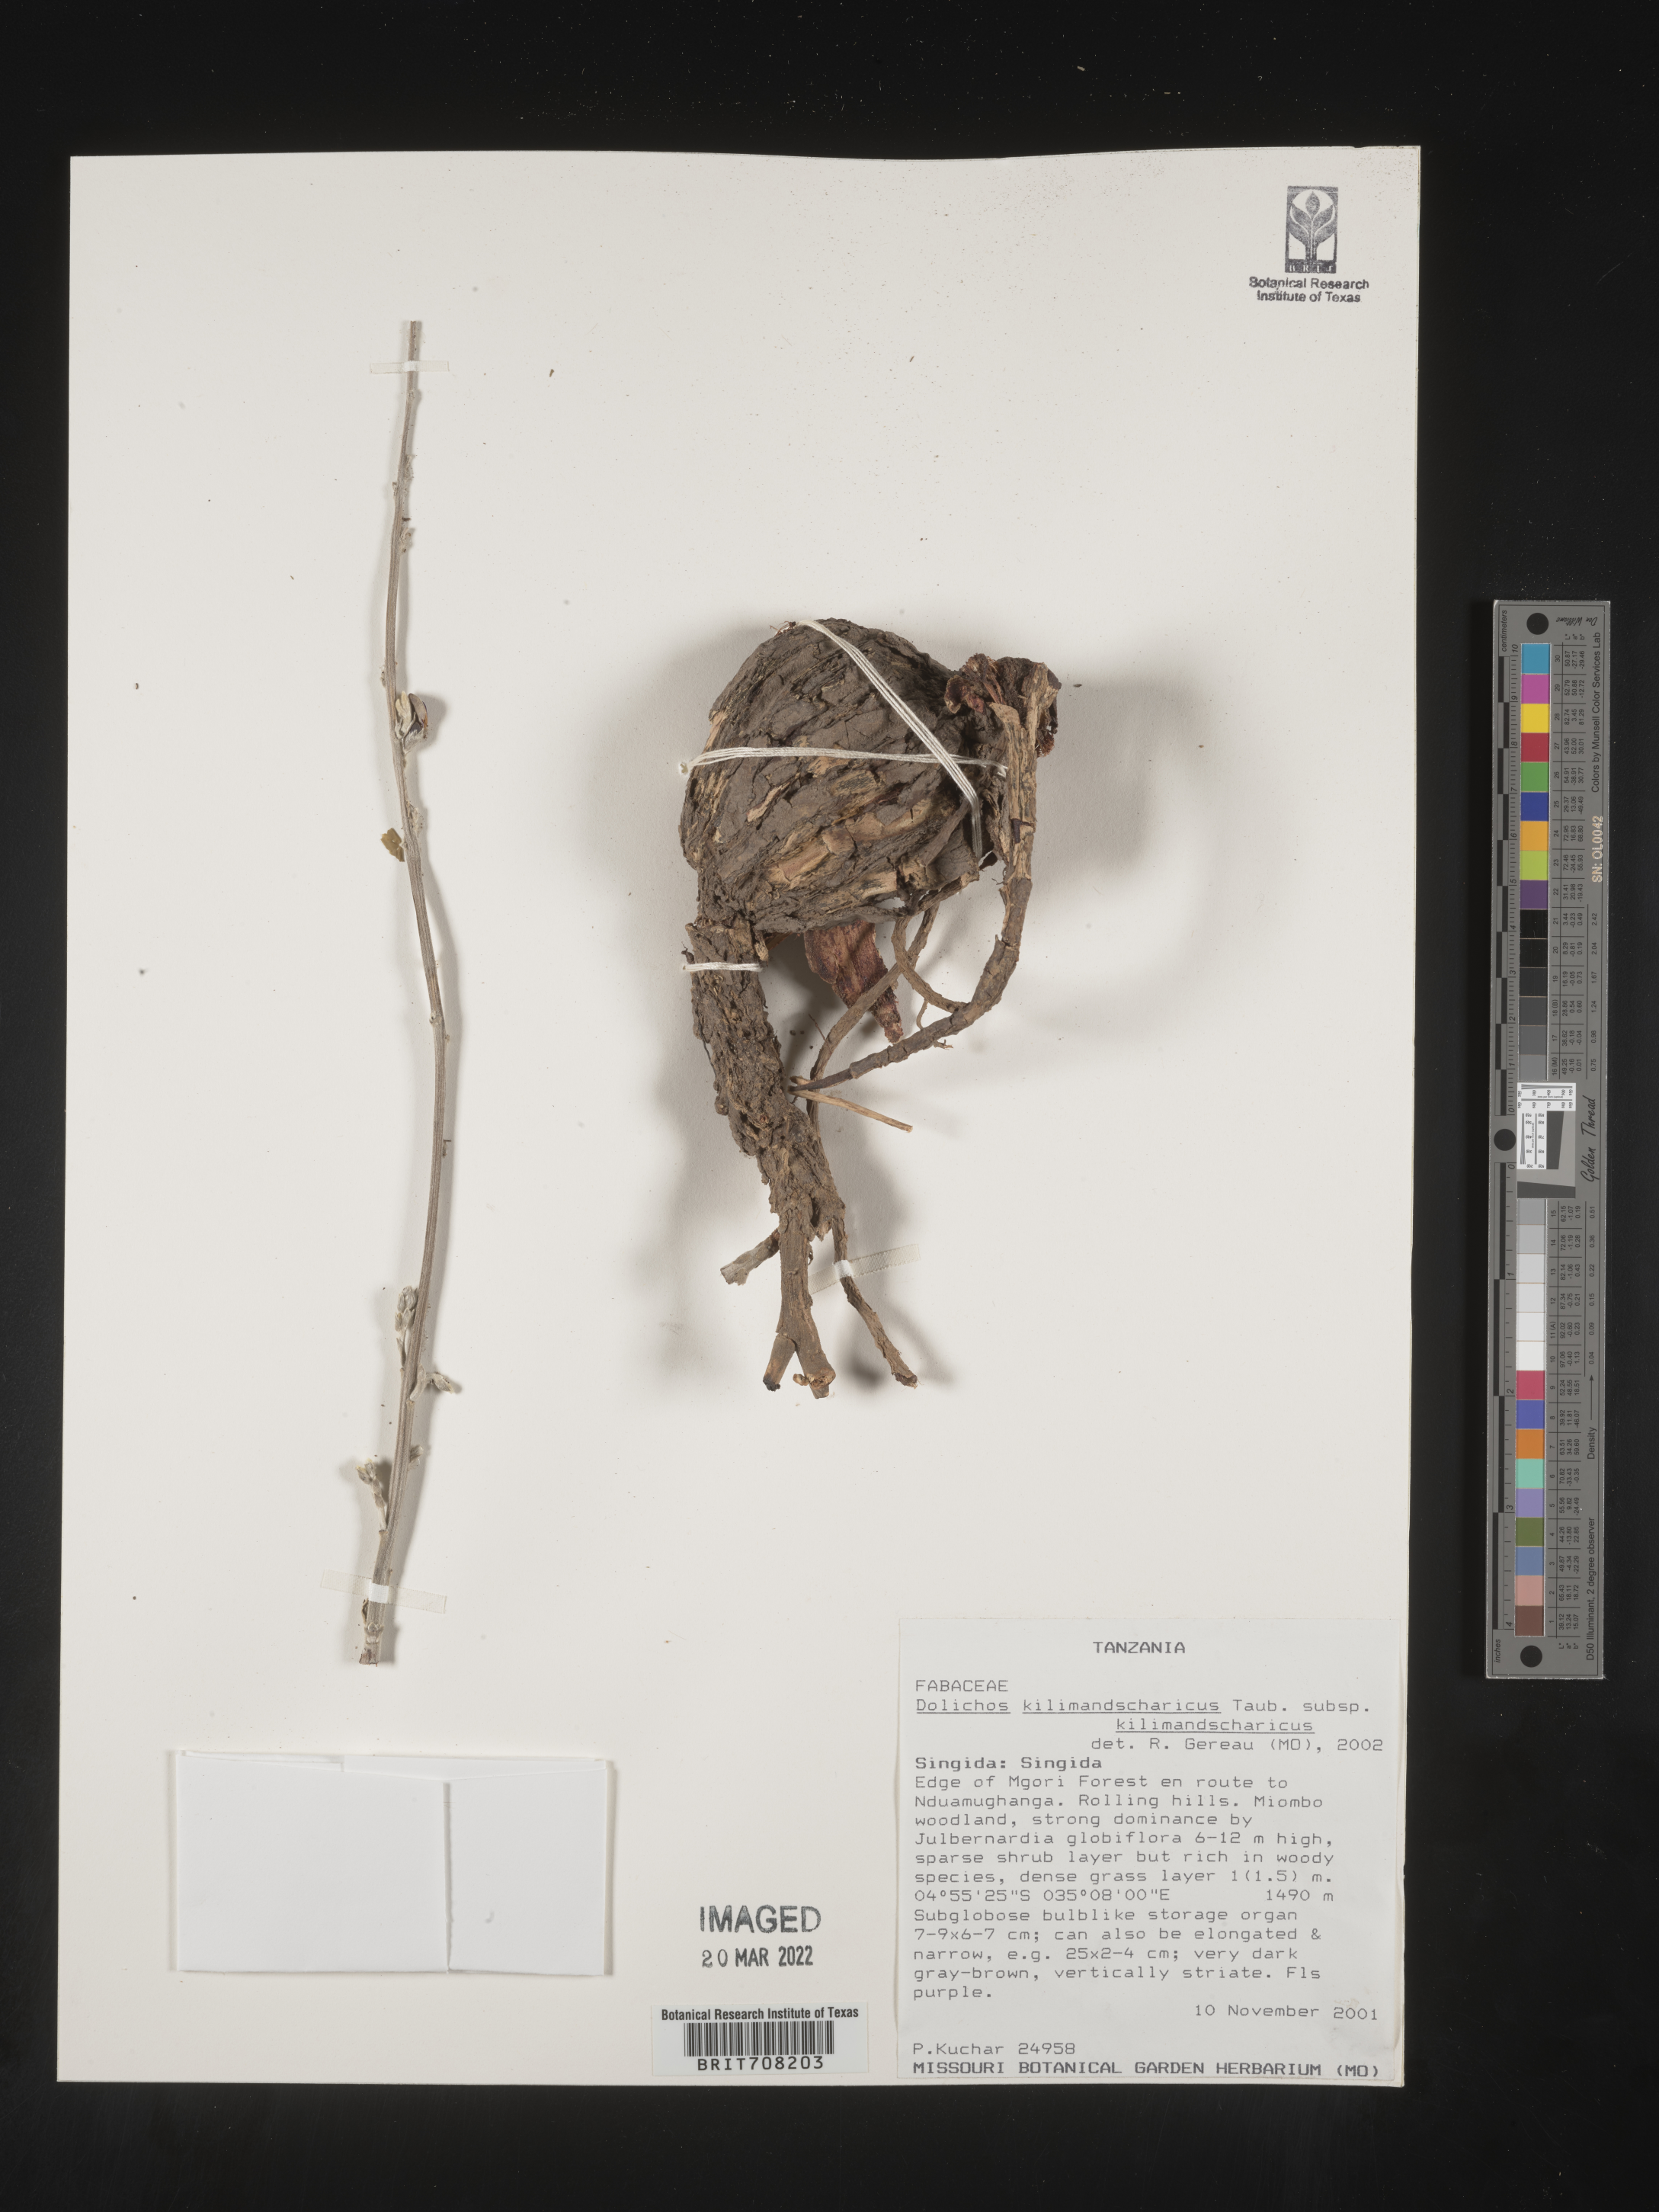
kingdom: Plantae
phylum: Tracheophyta
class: Magnoliopsida
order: Fabales
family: Fabaceae
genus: Dolichos
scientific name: Dolichos
